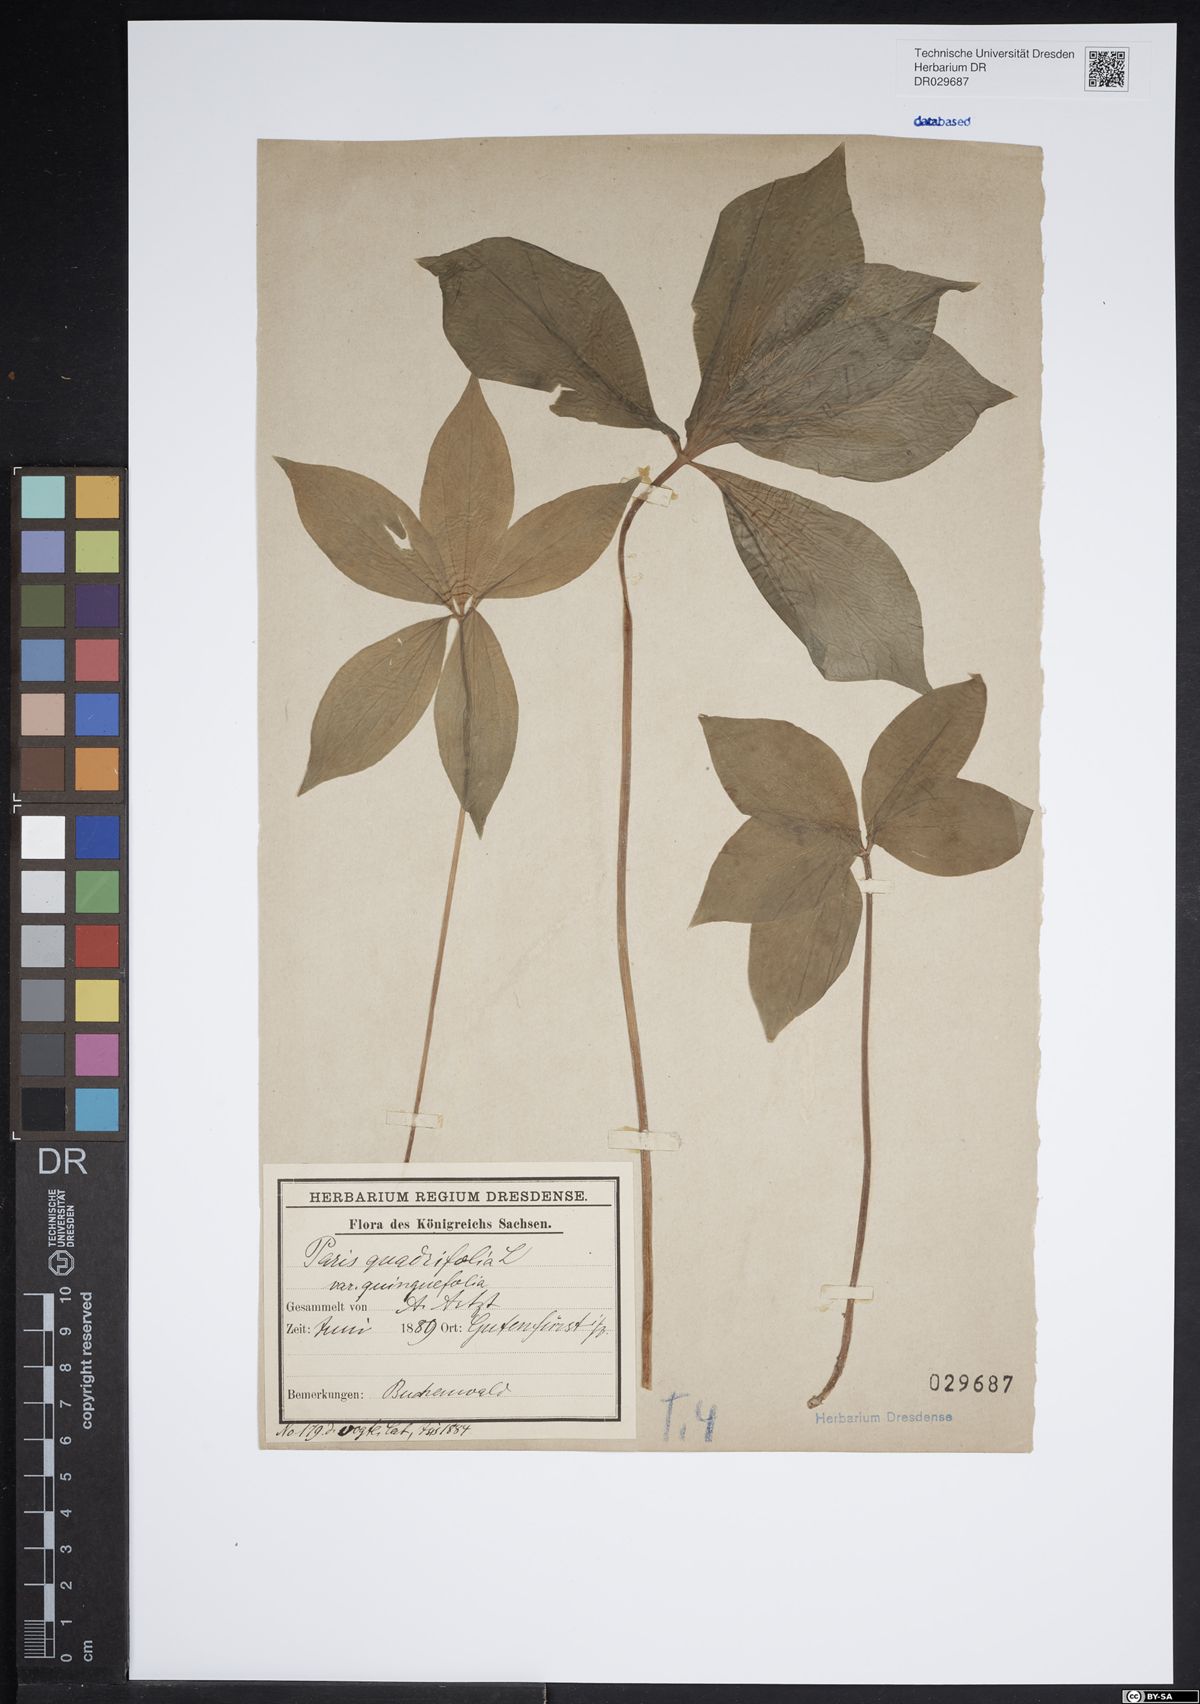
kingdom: Plantae
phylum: Tracheophyta
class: Liliopsida
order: Liliales
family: Melanthiaceae
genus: Paris
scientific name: Paris quadrifolia
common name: Herb-paris
